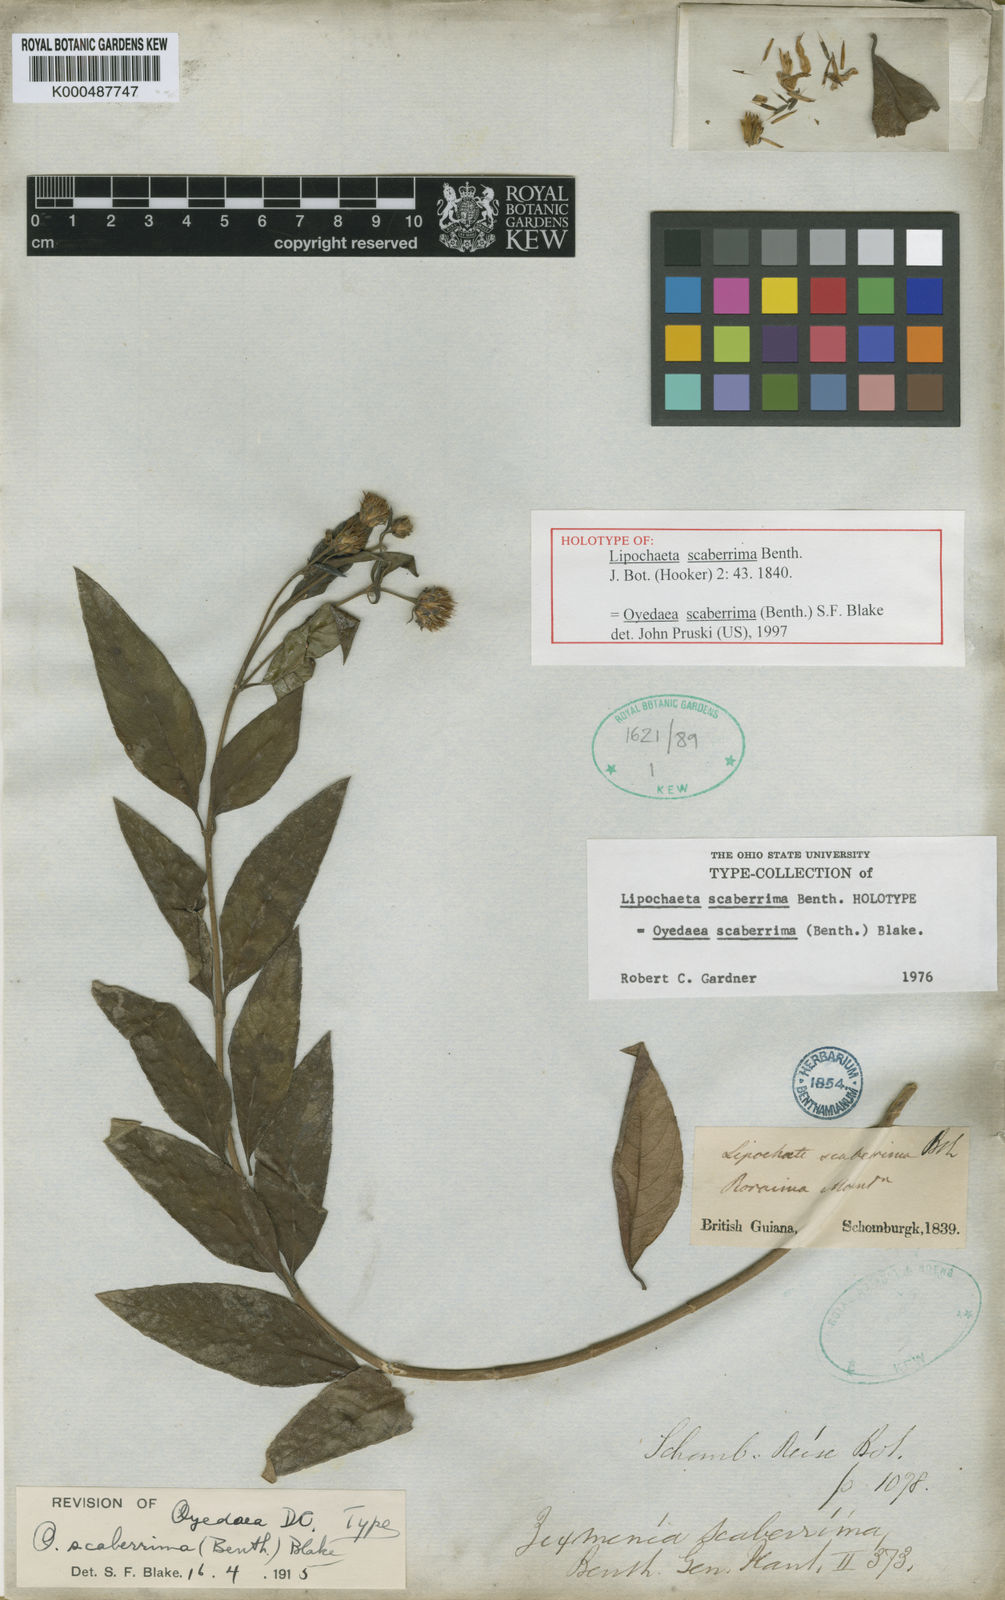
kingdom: Plantae
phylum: Tracheophyta
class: Magnoliopsida
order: Asterales
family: Asteraceae
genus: Oyedaea
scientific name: Oyedaea scaberrima
